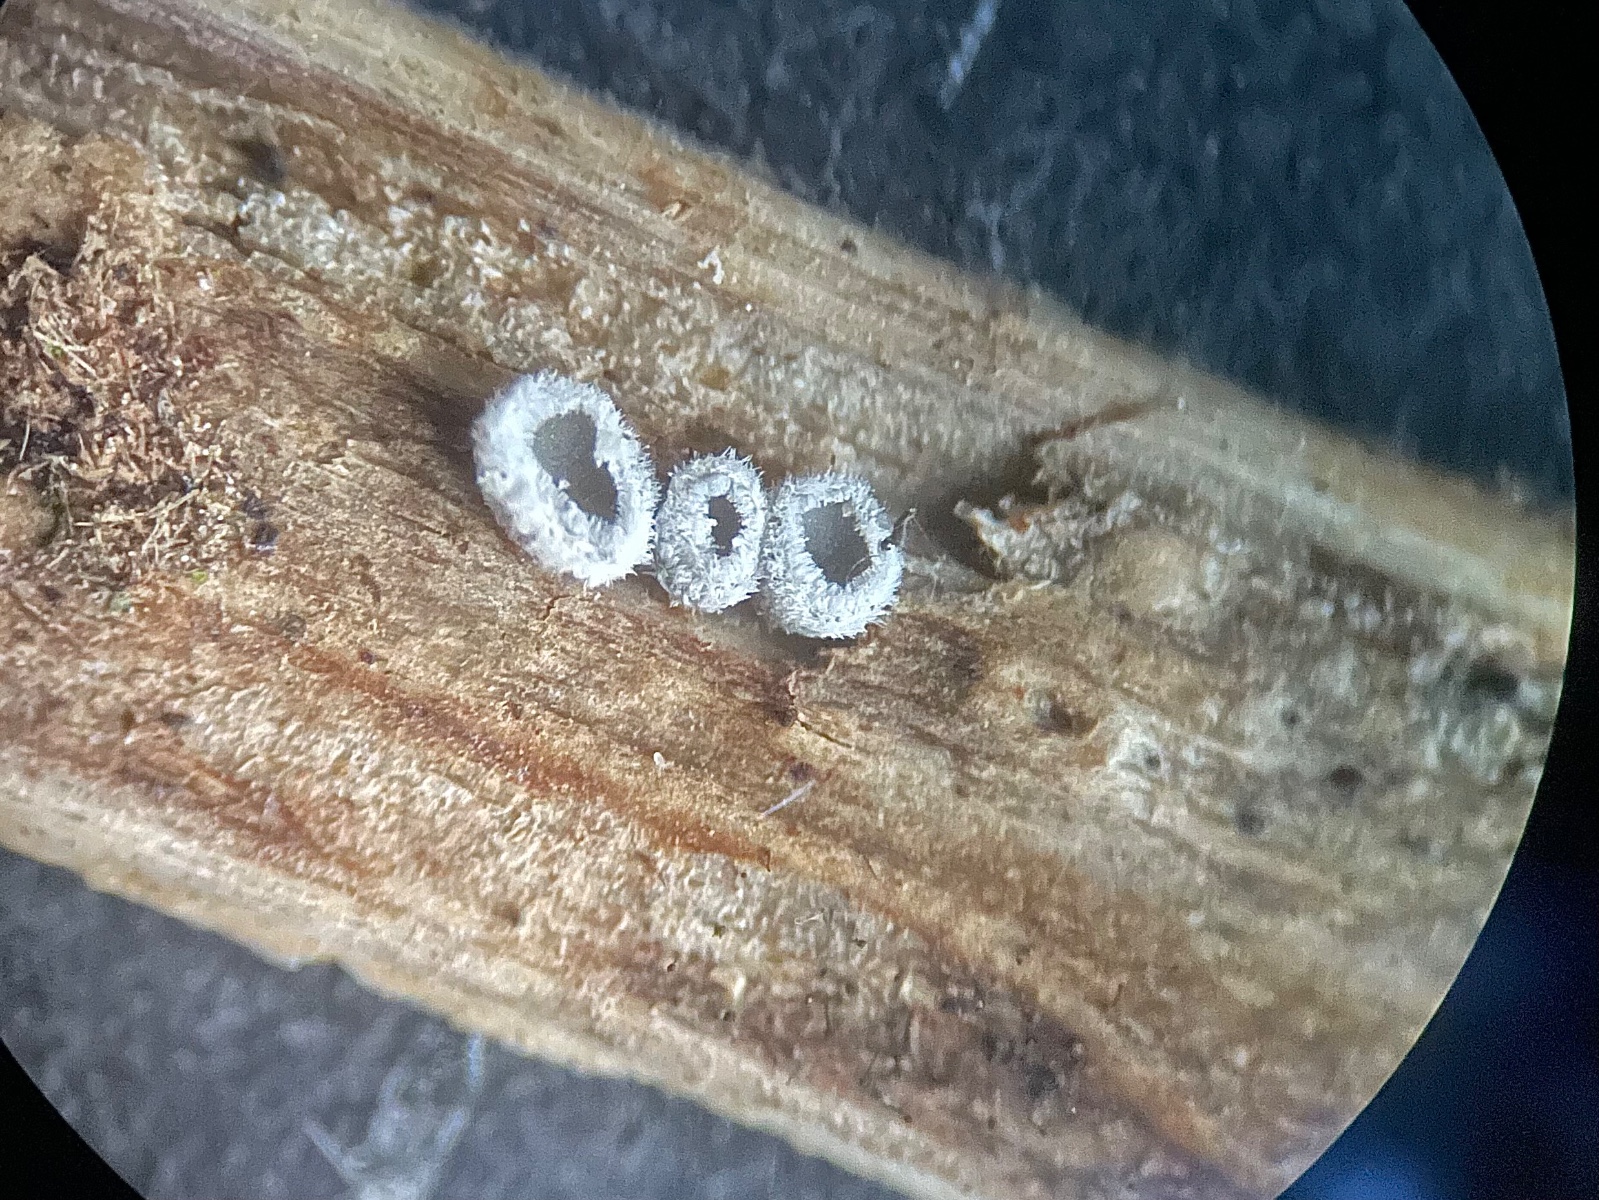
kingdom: Fungi
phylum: Basidiomycota
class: Agaricomycetes
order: Agaricales
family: Niaceae
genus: Lachnella
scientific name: Lachnella alboviolascens
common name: grå frynserede
